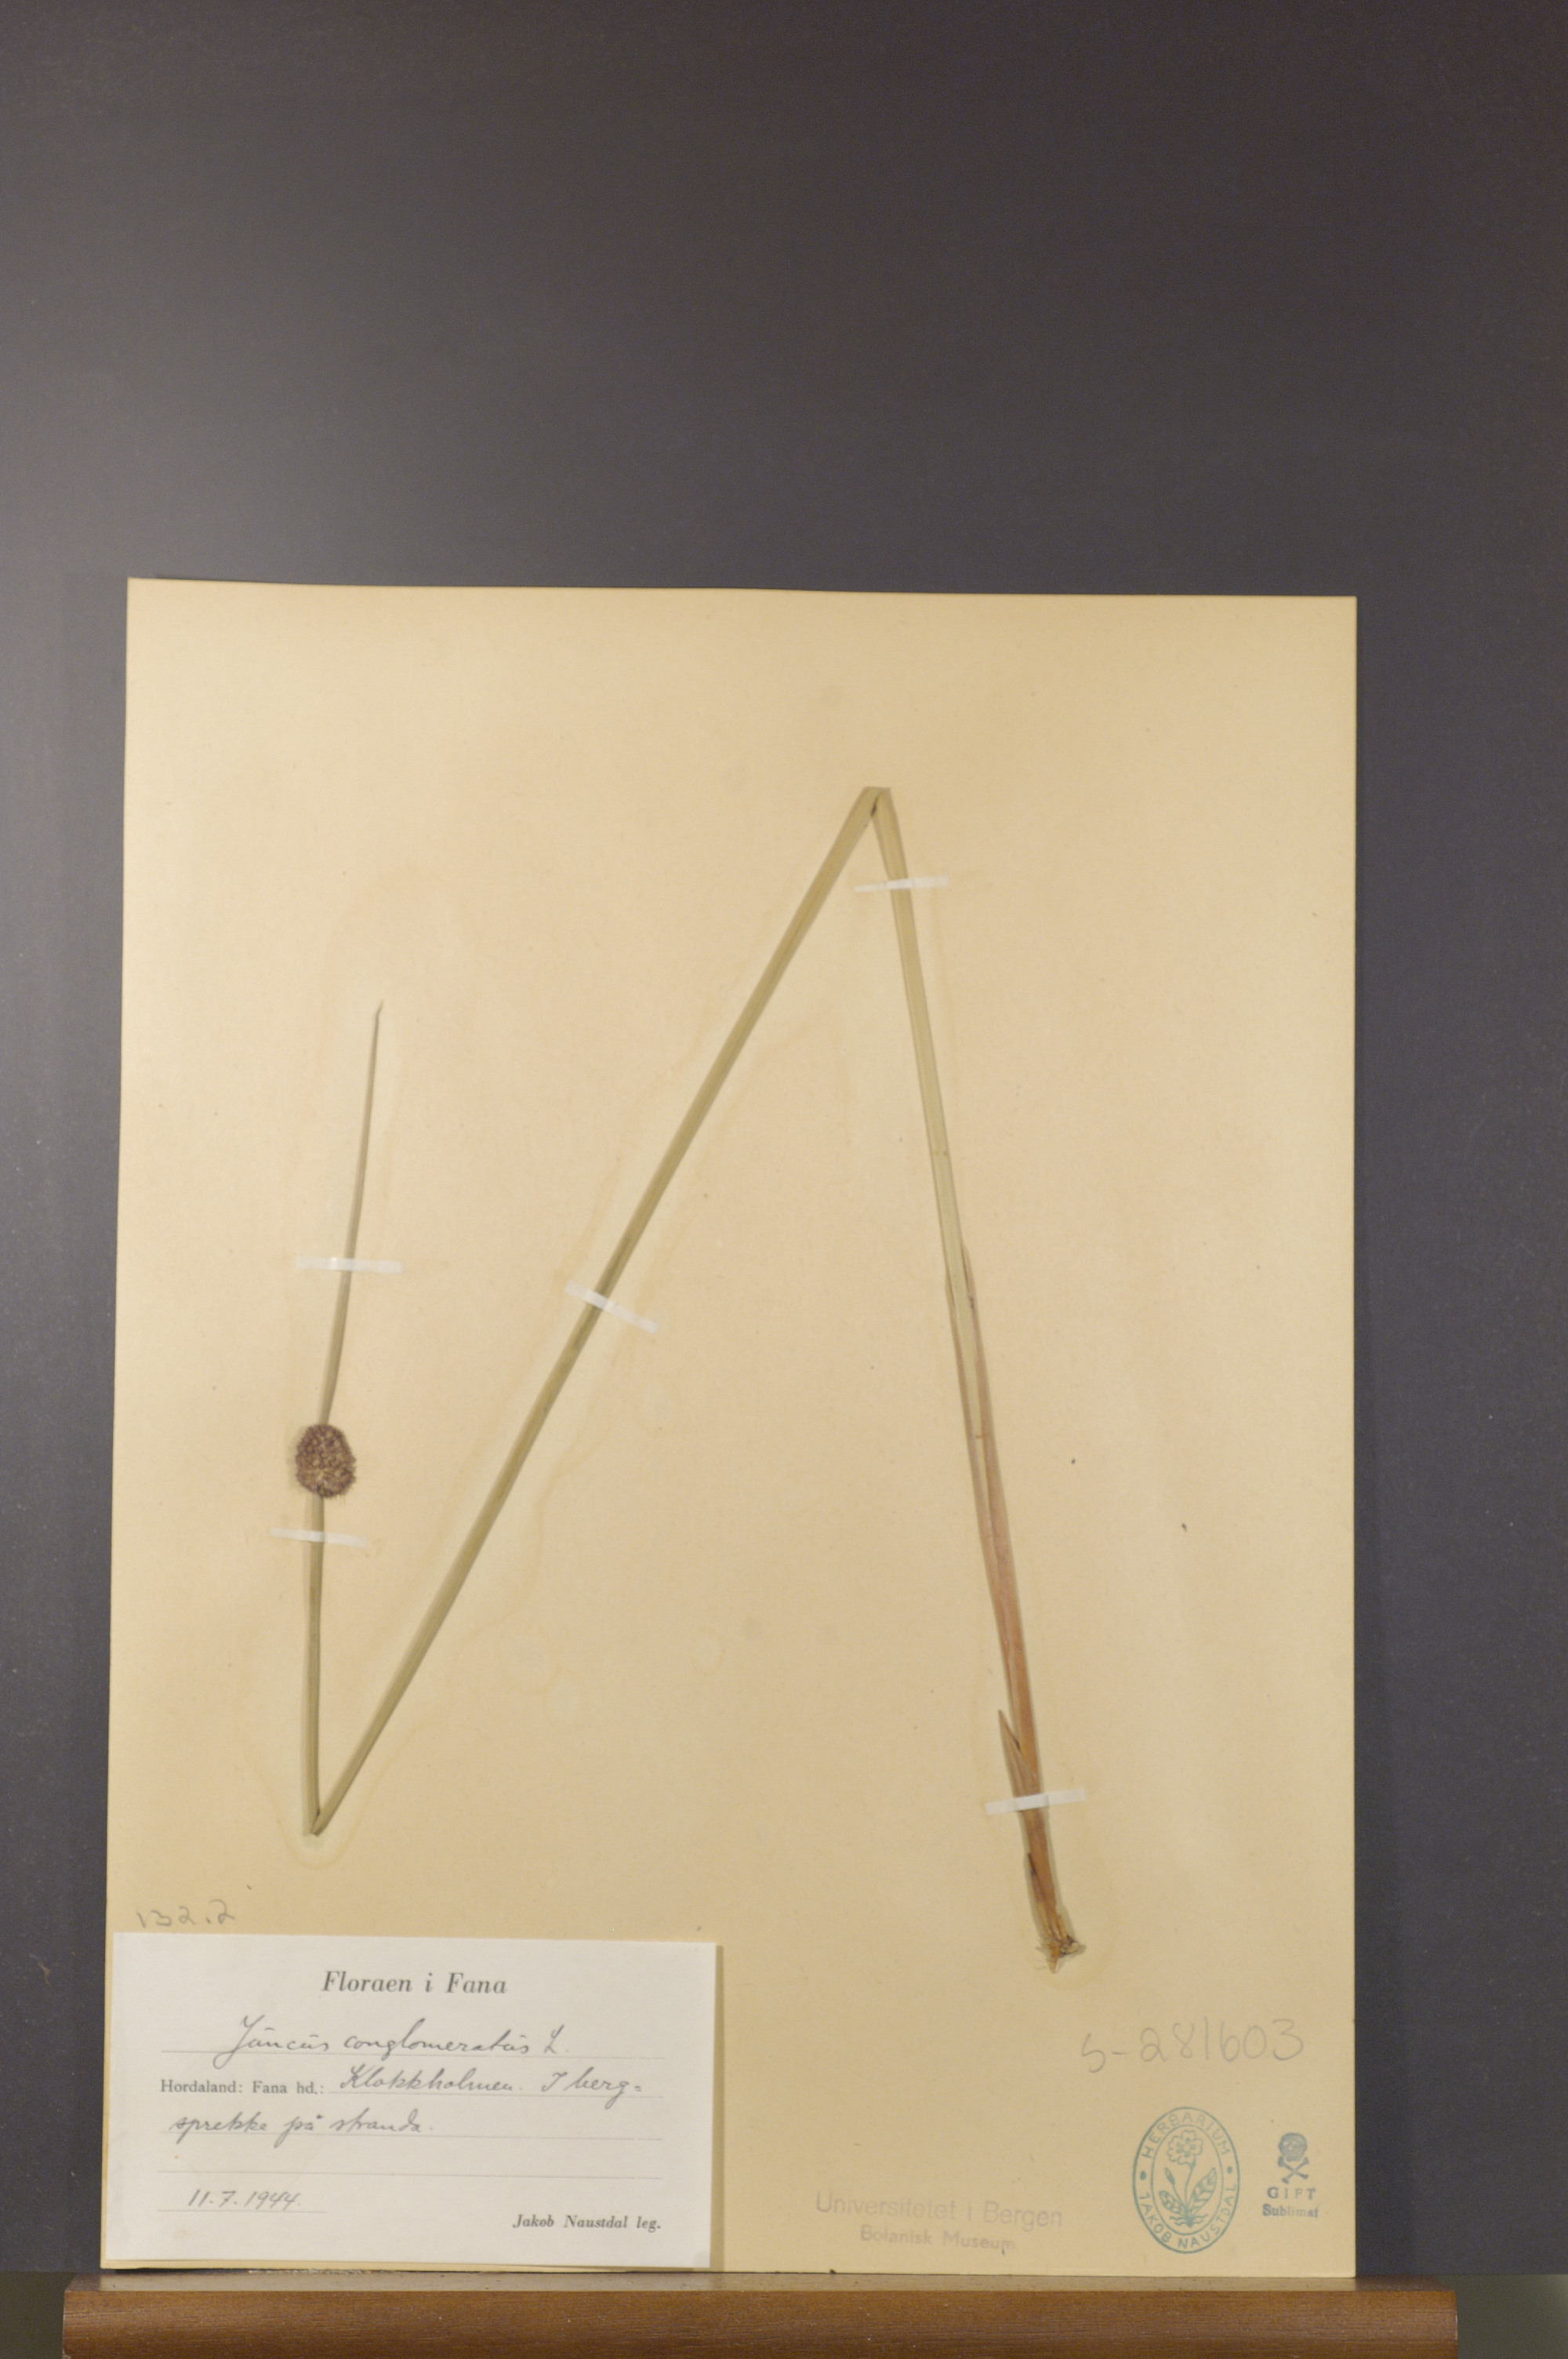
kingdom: Plantae
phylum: Tracheophyta
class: Liliopsida
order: Poales
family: Juncaceae
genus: Juncus
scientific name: Juncus conglomeratus
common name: Compact rush
